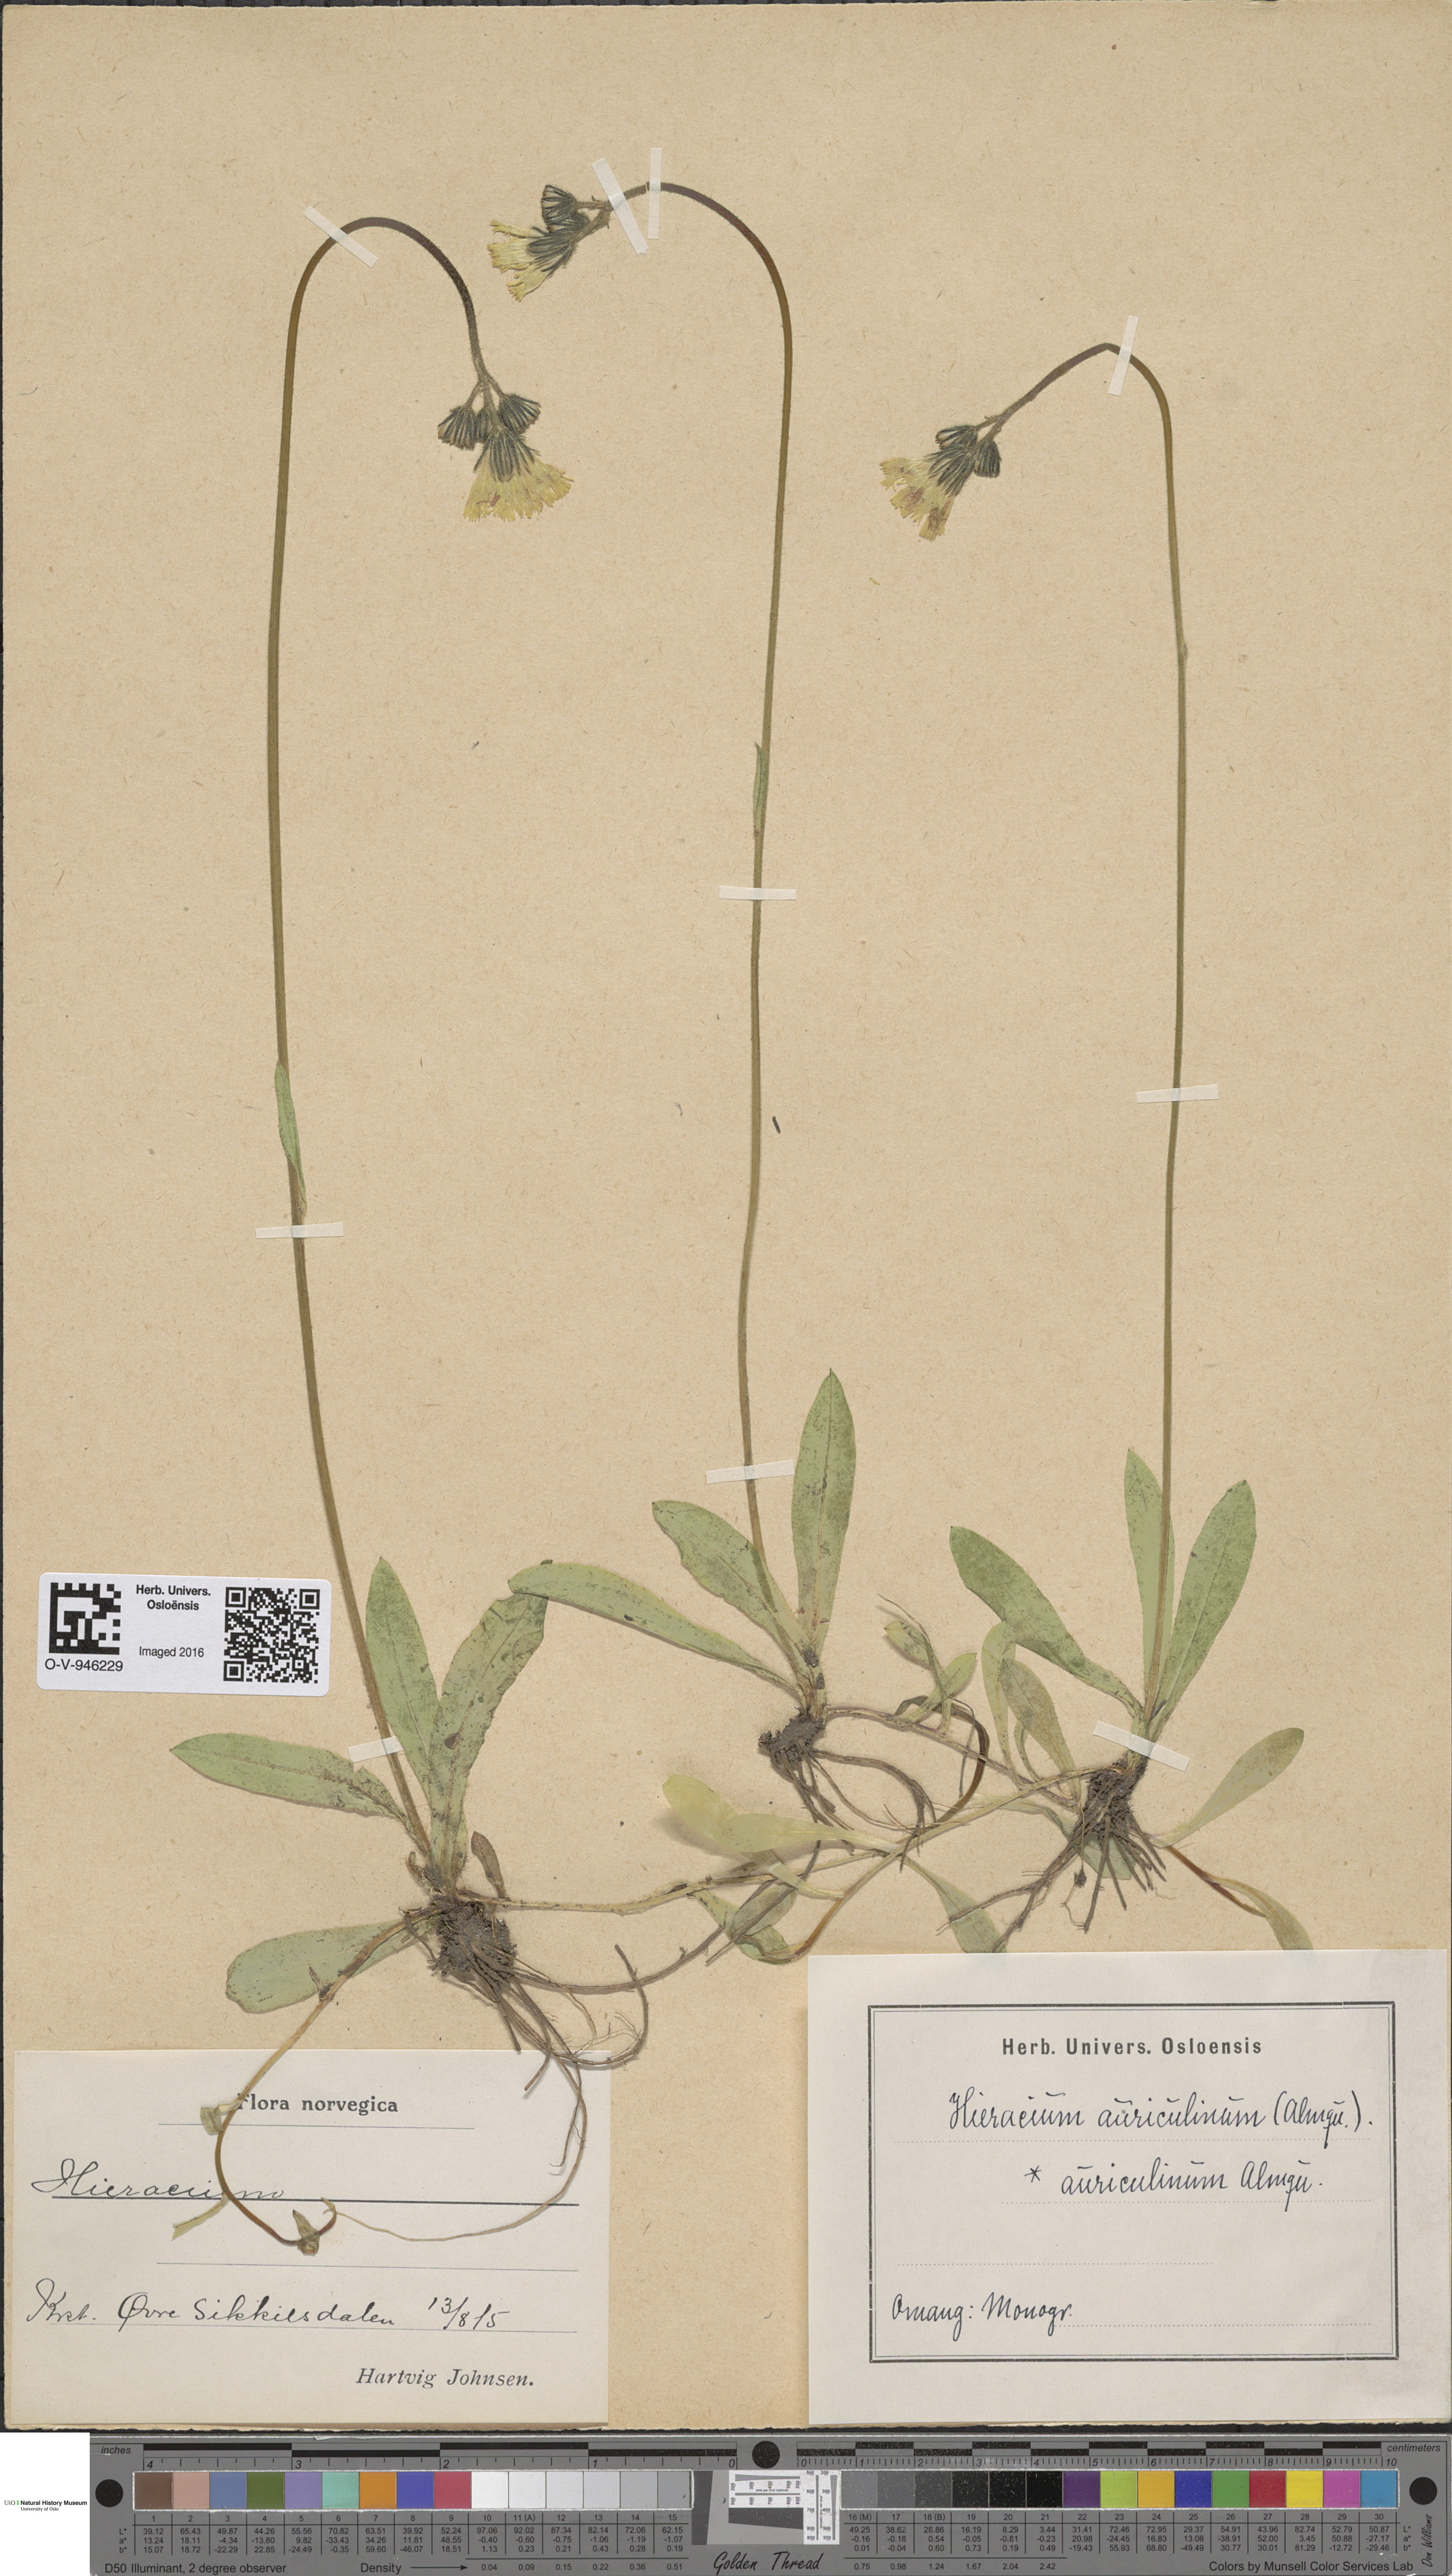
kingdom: Plantae
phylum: Tracheophyta
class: Magnoliopsida
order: Asterales
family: Asteraceae
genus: Pilosella
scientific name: Pilosella dubia
